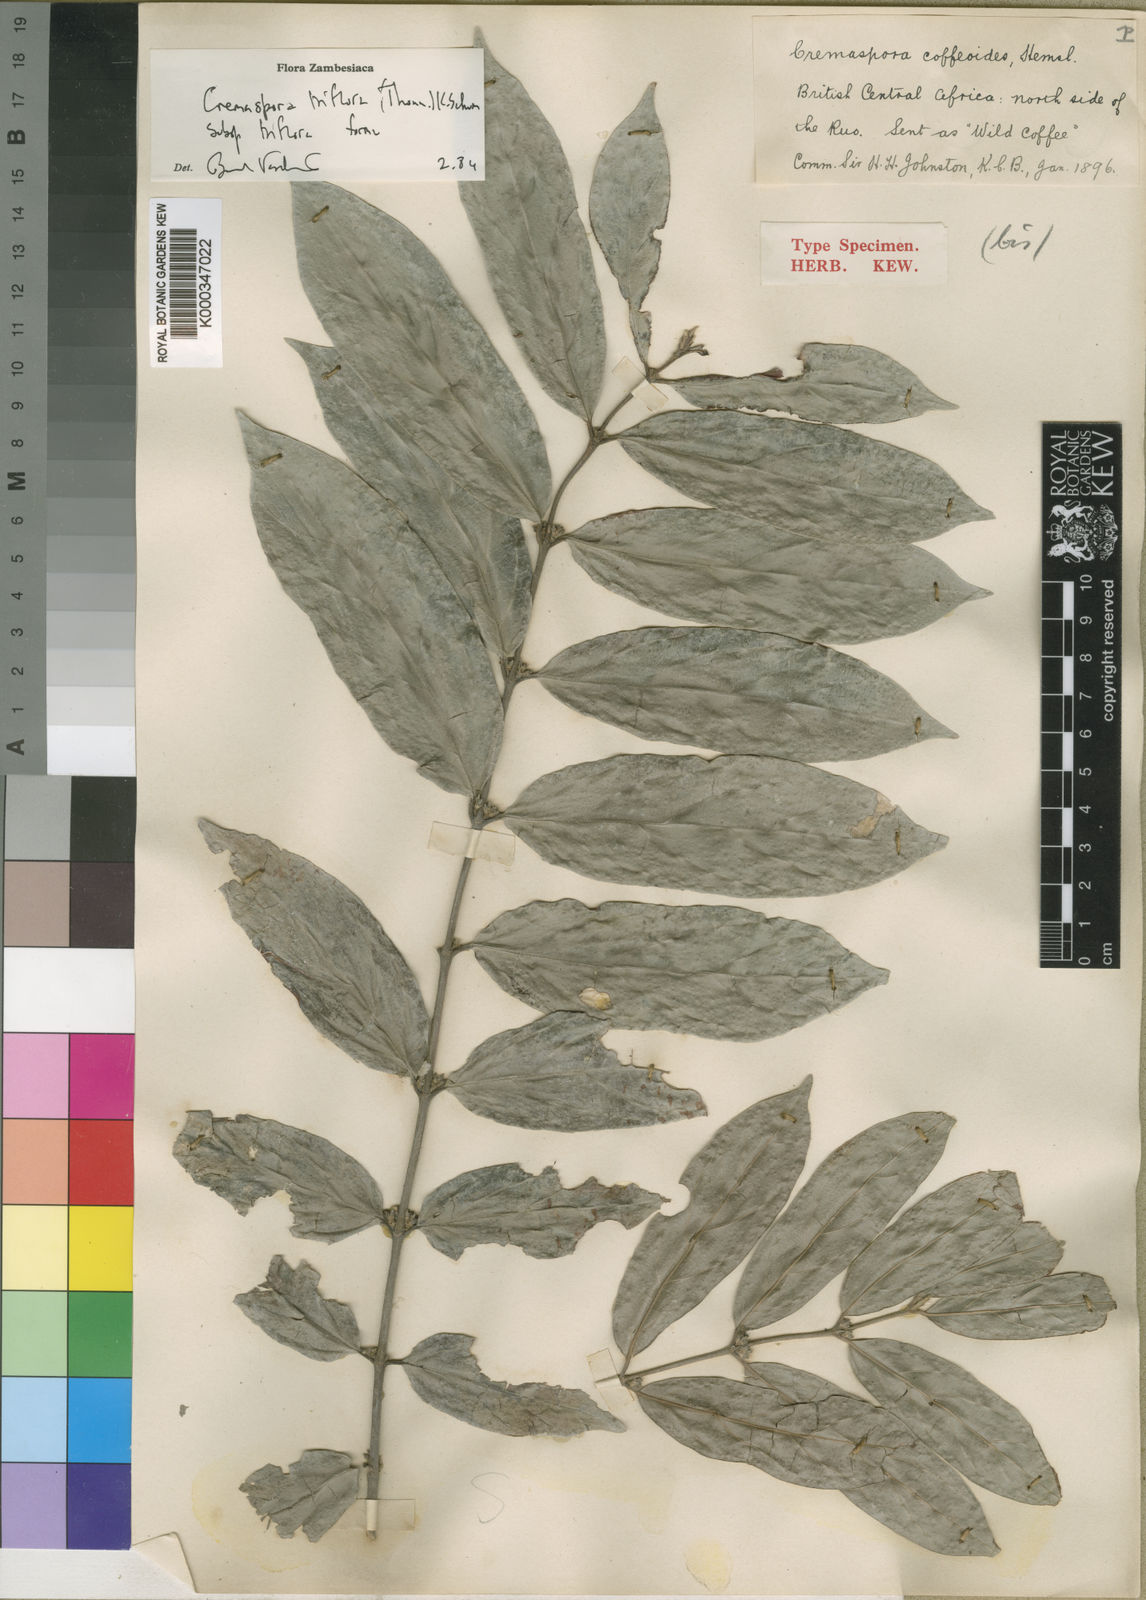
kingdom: Plantae
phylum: Tracheophyta
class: Magnoliopsida
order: Gentianales
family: Rubiaceae
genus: Cremaspora
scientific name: Cremaspora triflora
